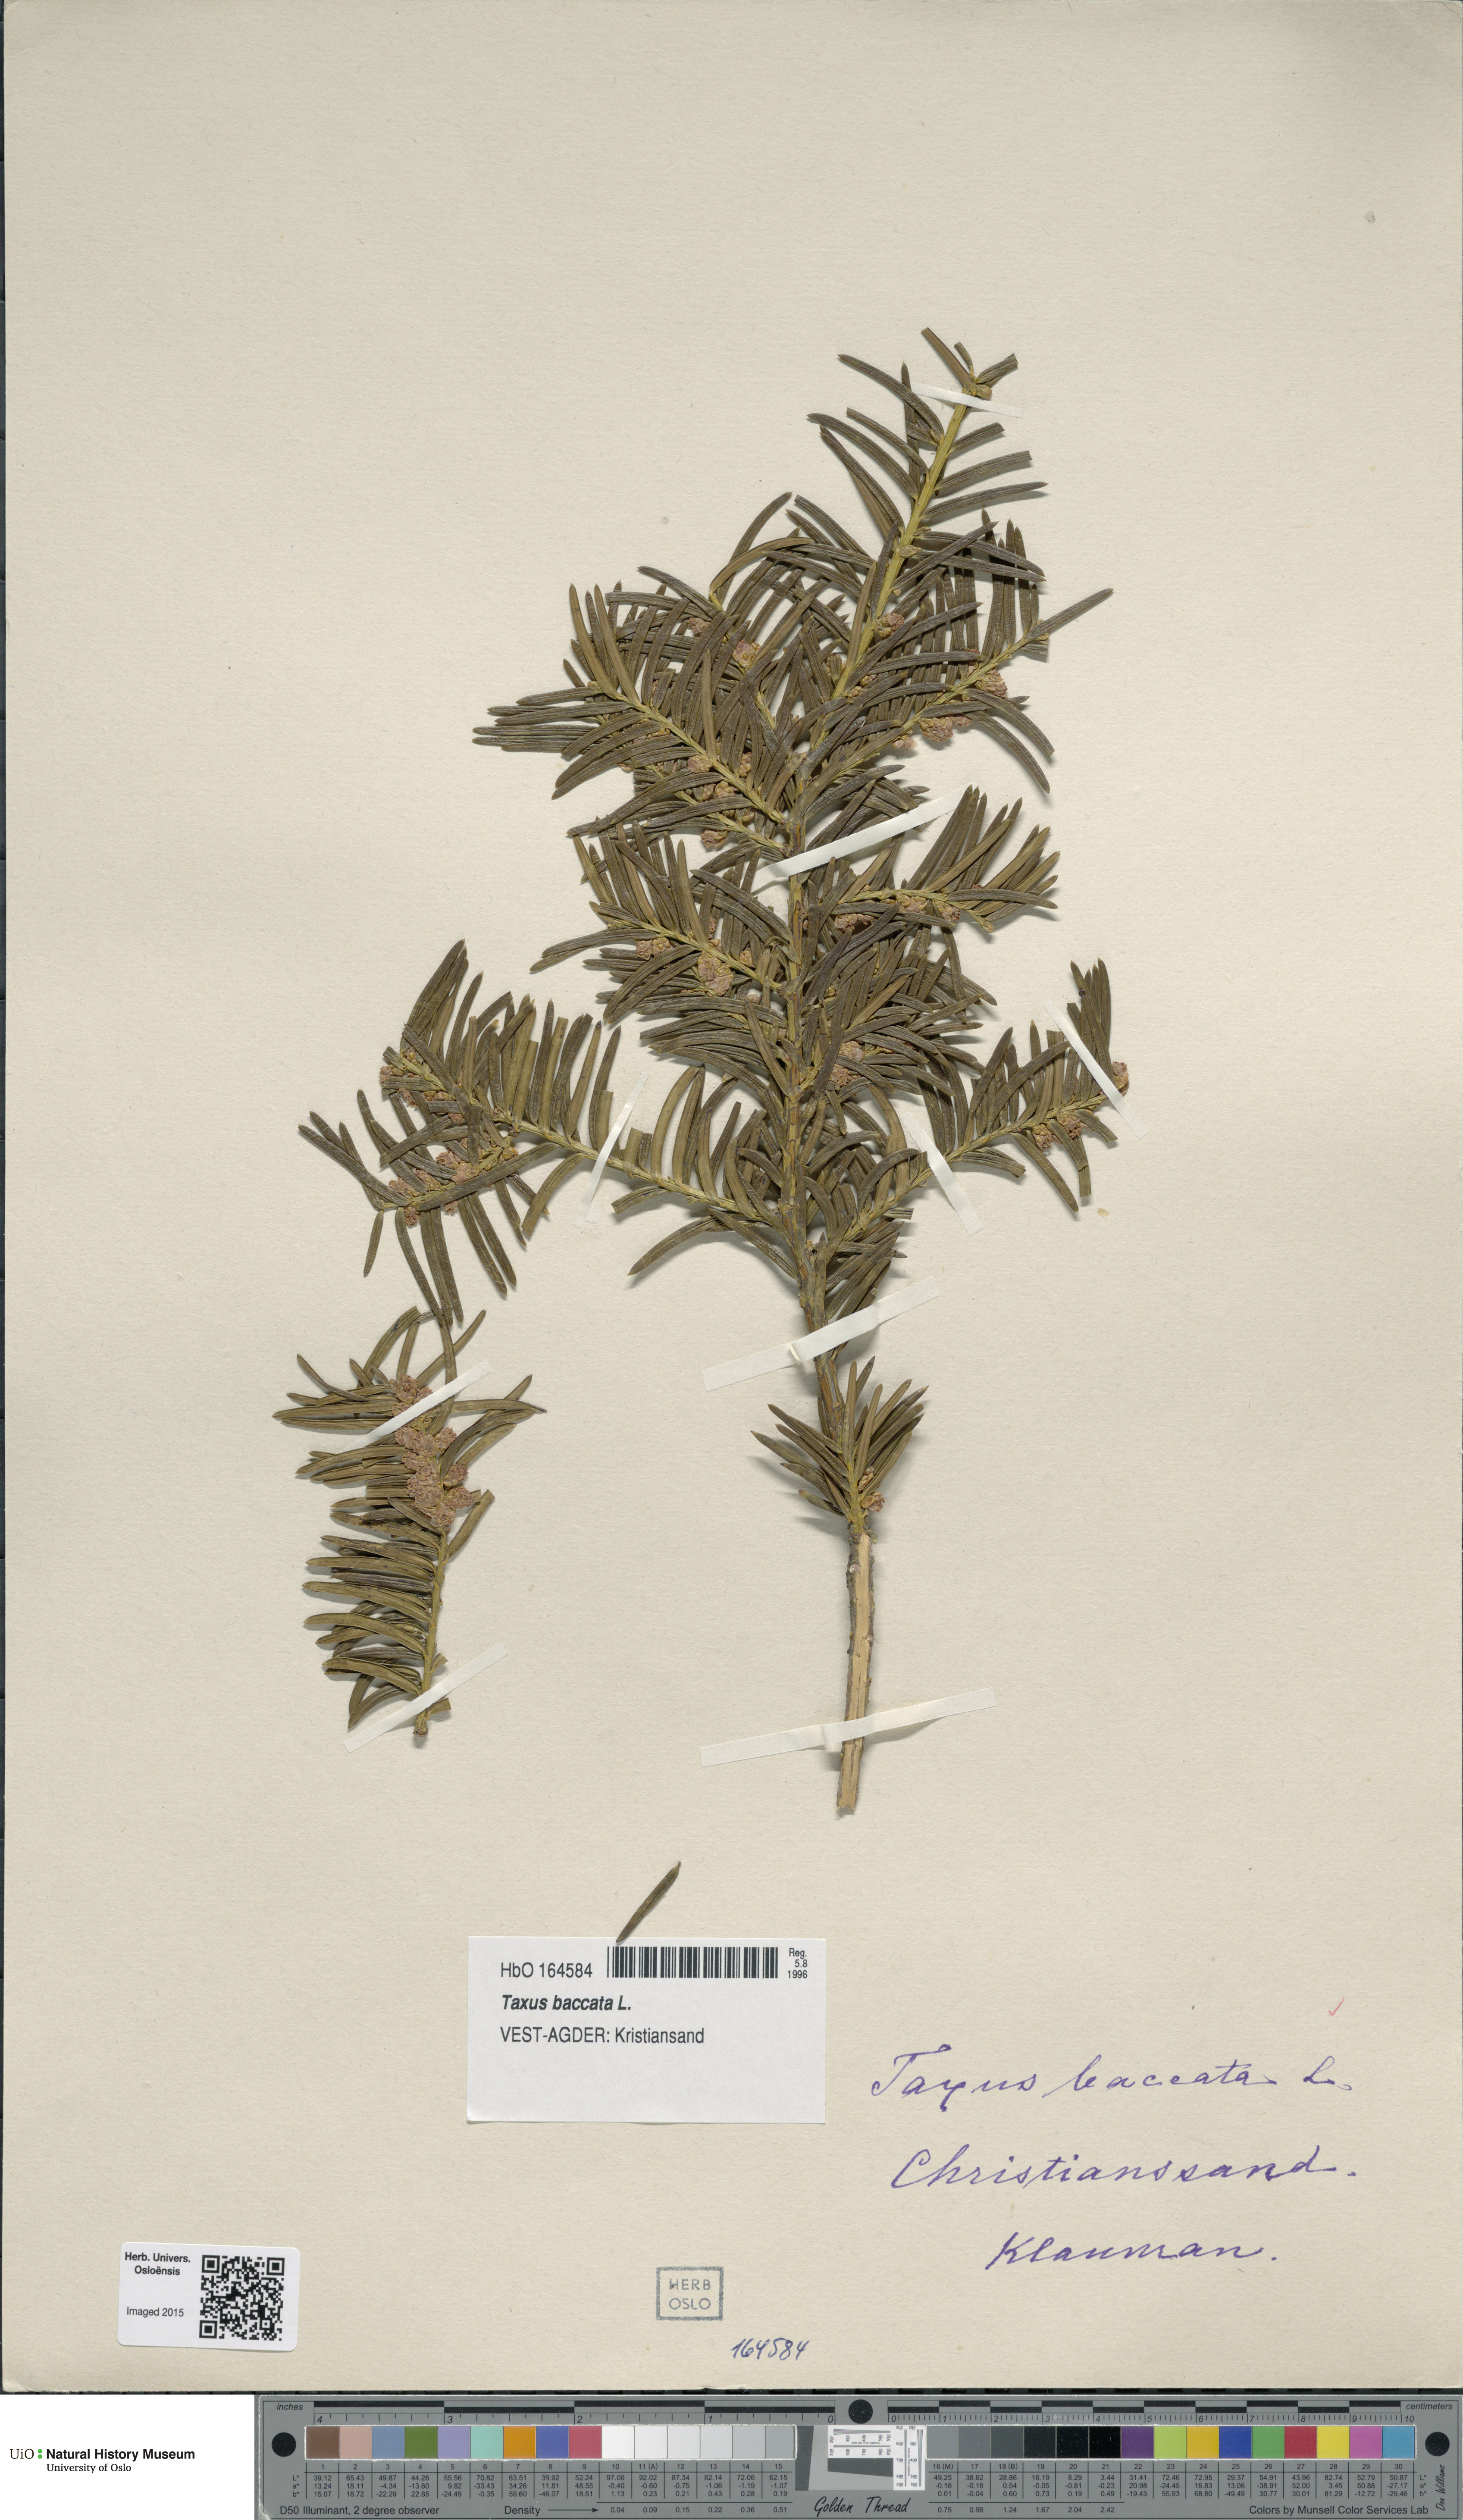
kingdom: Plantae
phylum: Tracheophyta
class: Pinopsida
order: Pinales
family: Taxaceae
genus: Taxus
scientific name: Taxus baccata
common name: Yew
